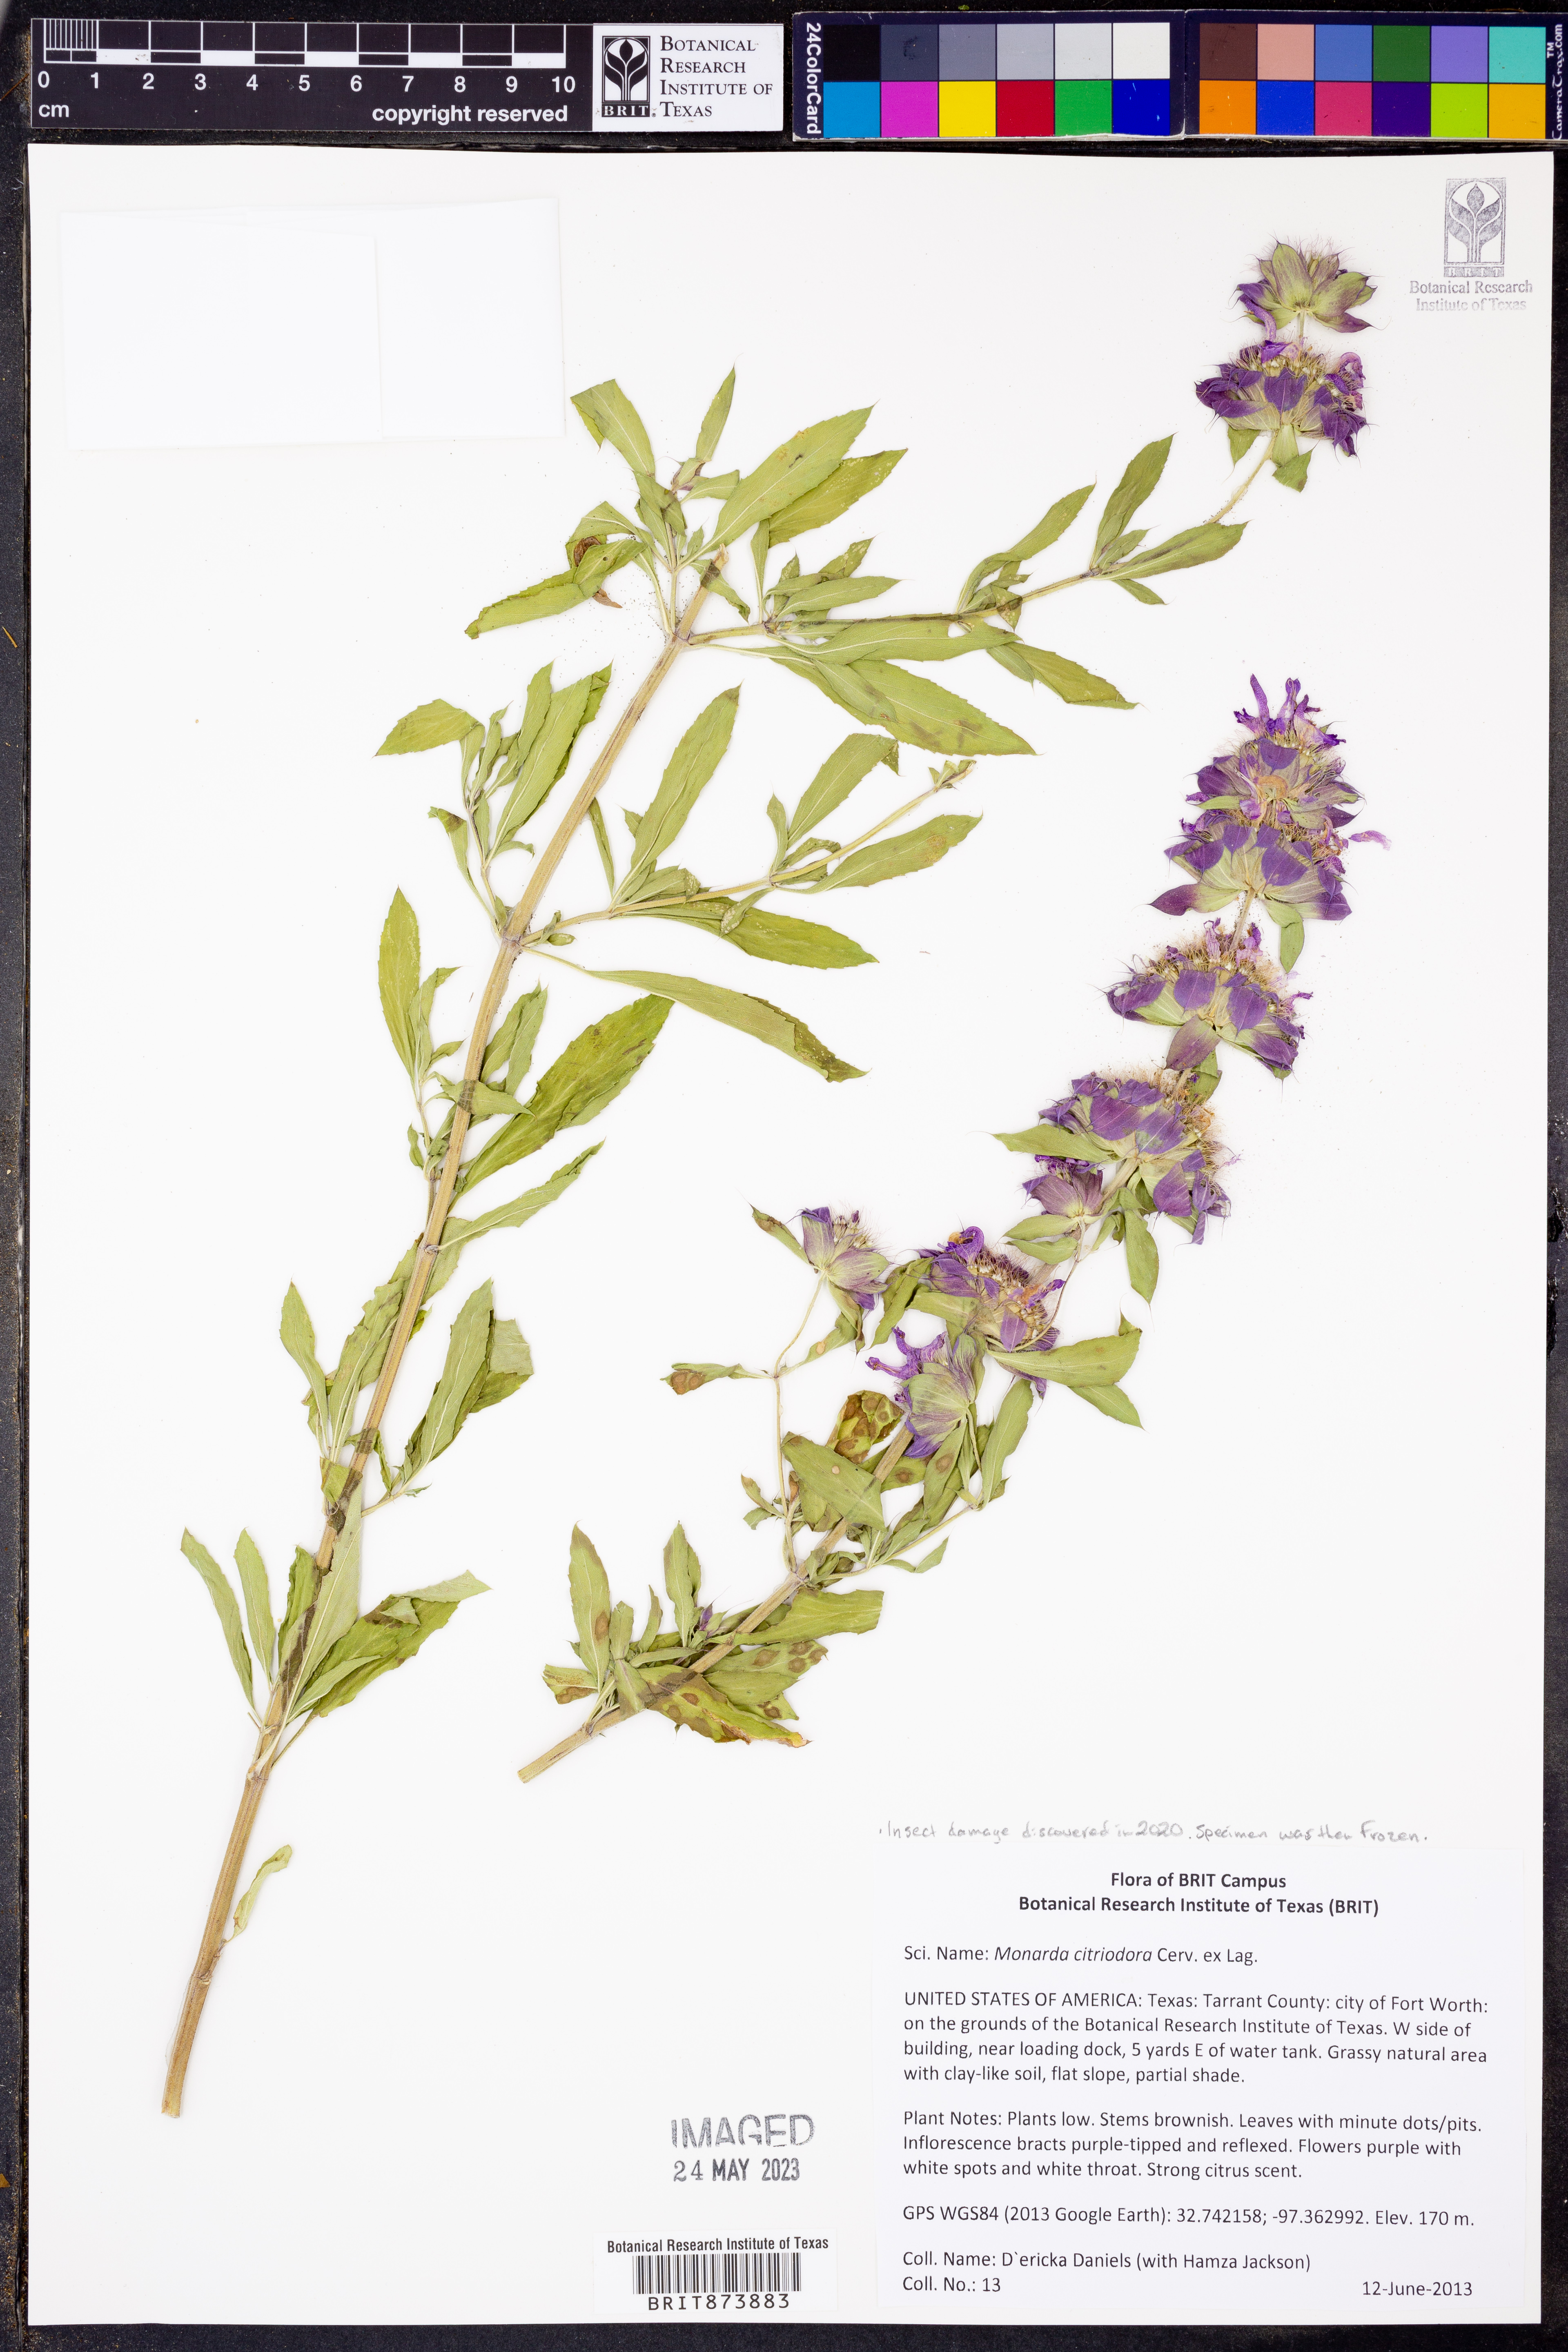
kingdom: Plantae
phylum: Tracheophyta
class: Magnoliopsida
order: Lamiales
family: Lamiaceae
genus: Monarda
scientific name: Monarda citriodora
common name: Lemon beebalm
